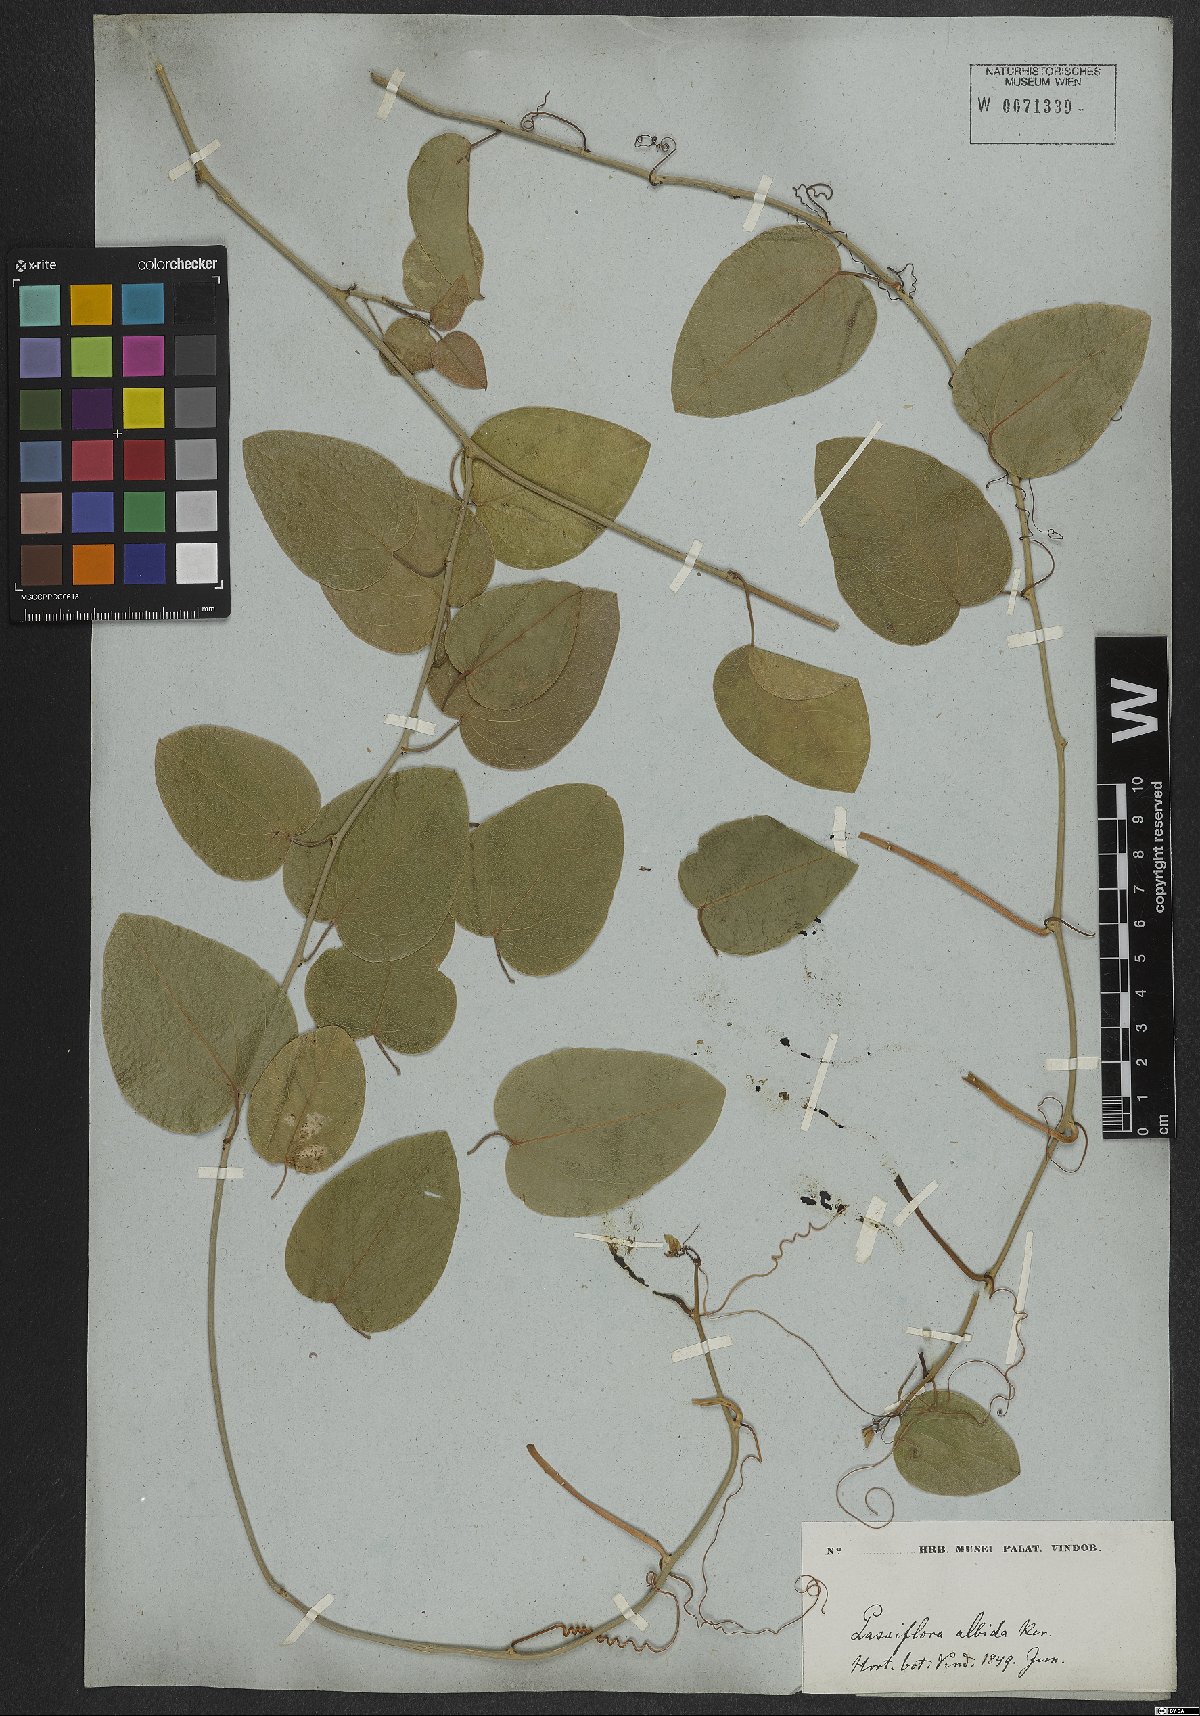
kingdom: Plantae
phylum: Tracheophyta
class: Magnoliopsida
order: Malpighiales
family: Passifloraceae
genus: Passiflora
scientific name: Passiflora mucronata
